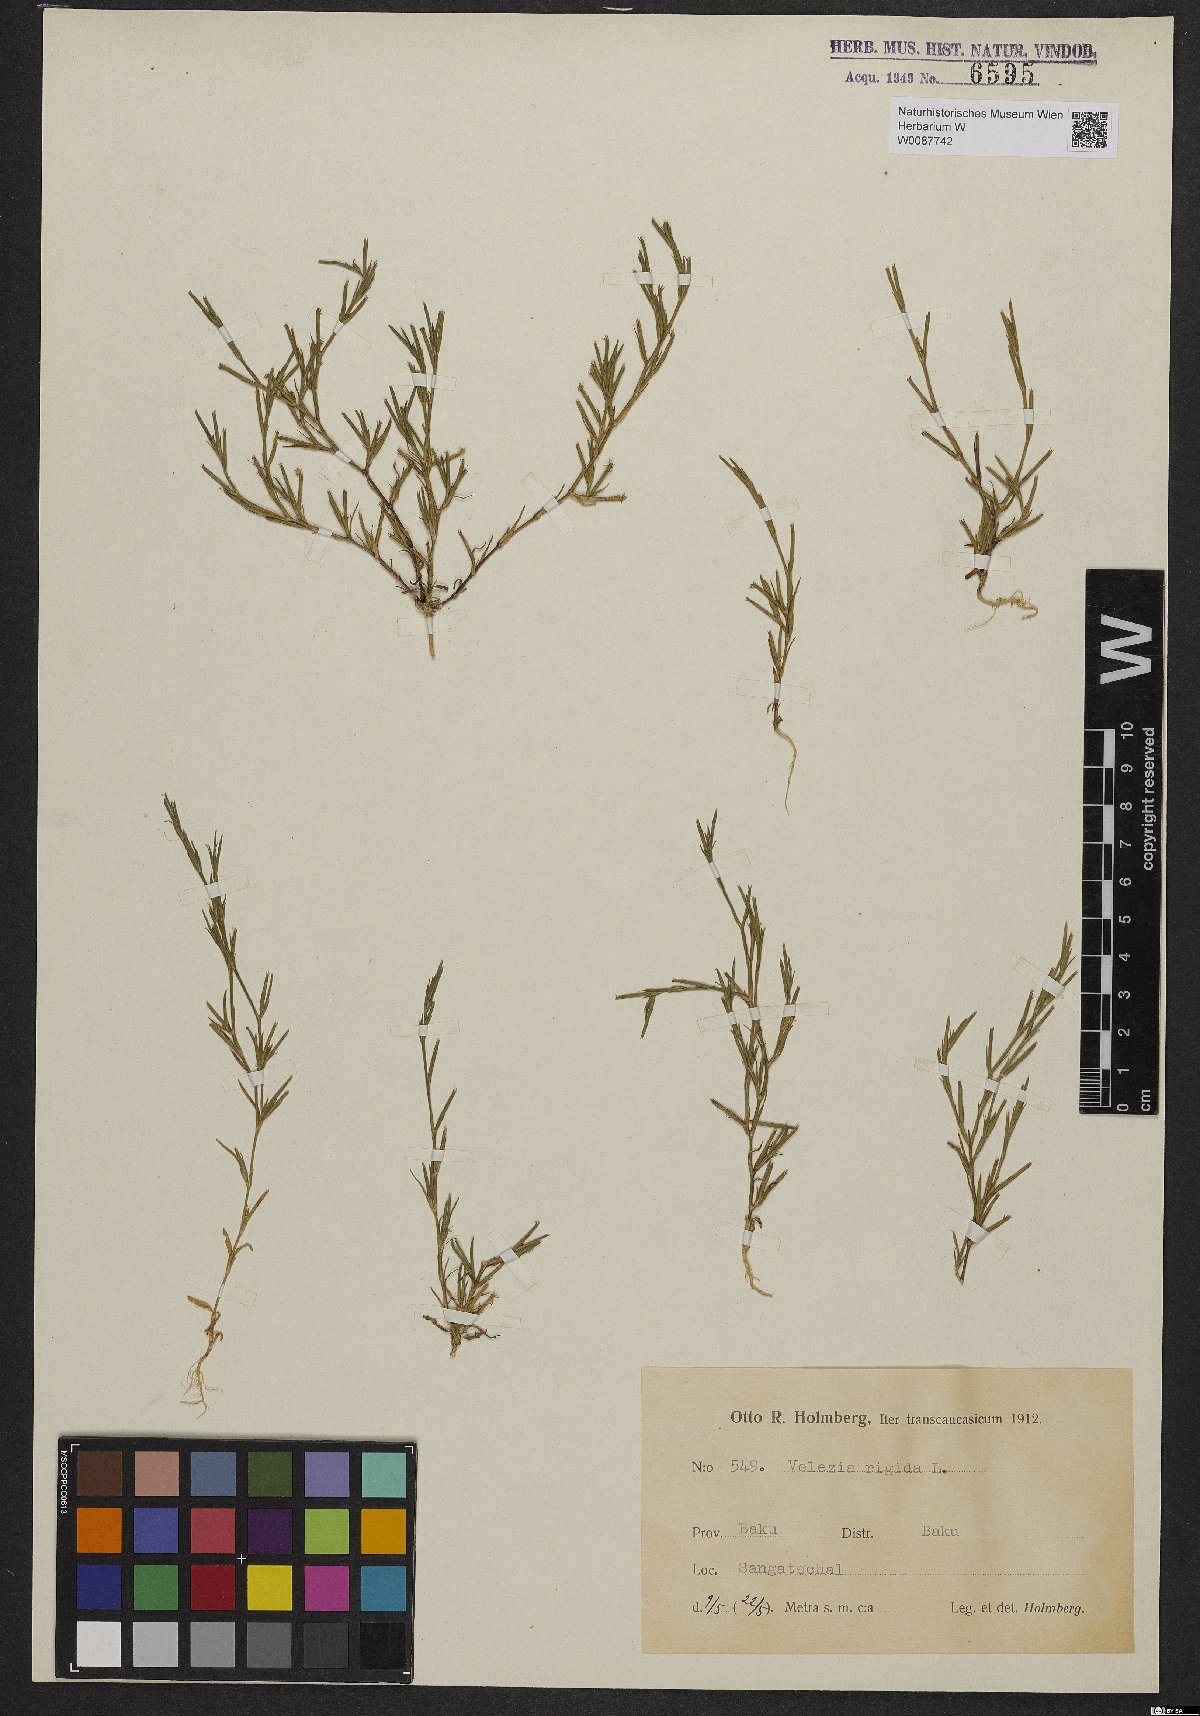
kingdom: Plantae
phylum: Tracheophyta
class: Magnoliopsida
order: Caryophyllales
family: Caryophyllaceae
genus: Dianthus
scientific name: Dianthus nudiflorus
